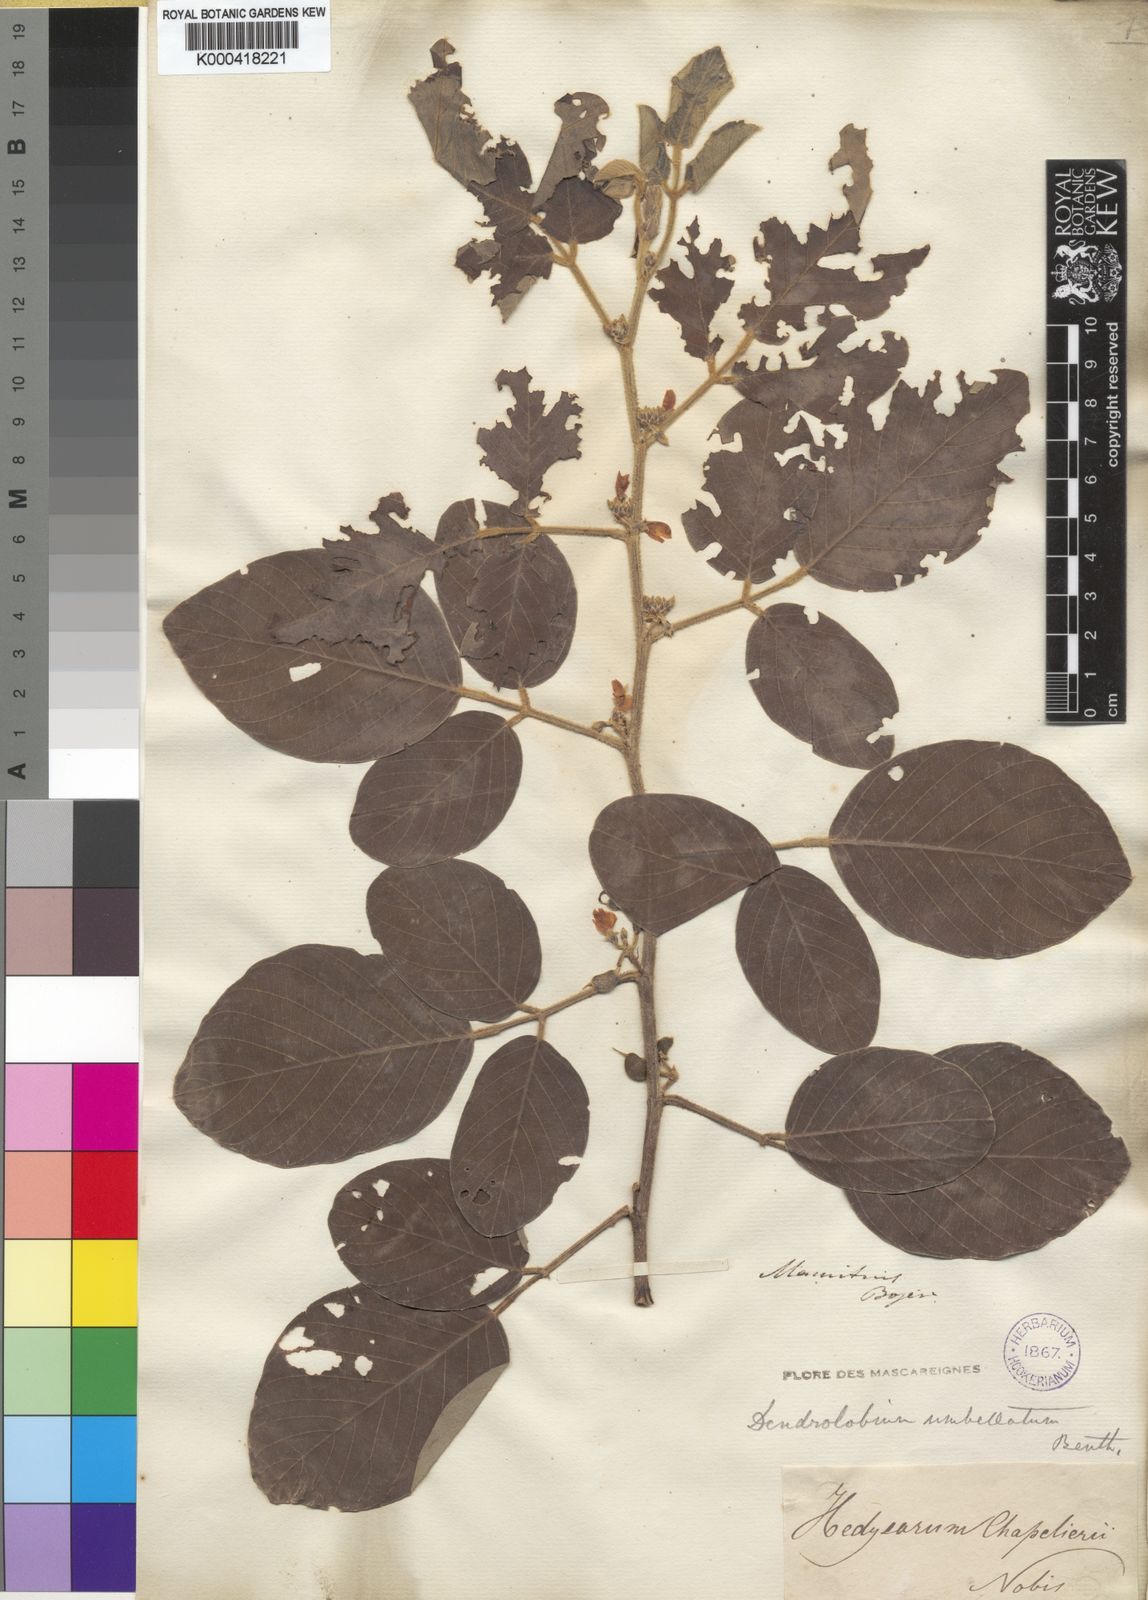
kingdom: Plantae
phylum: Tracheophyta
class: Magnoliopsida
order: Fabales
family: Fabaceae
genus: Dendrolobium
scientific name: Dendrolobium umbellatum
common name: Horsebush
